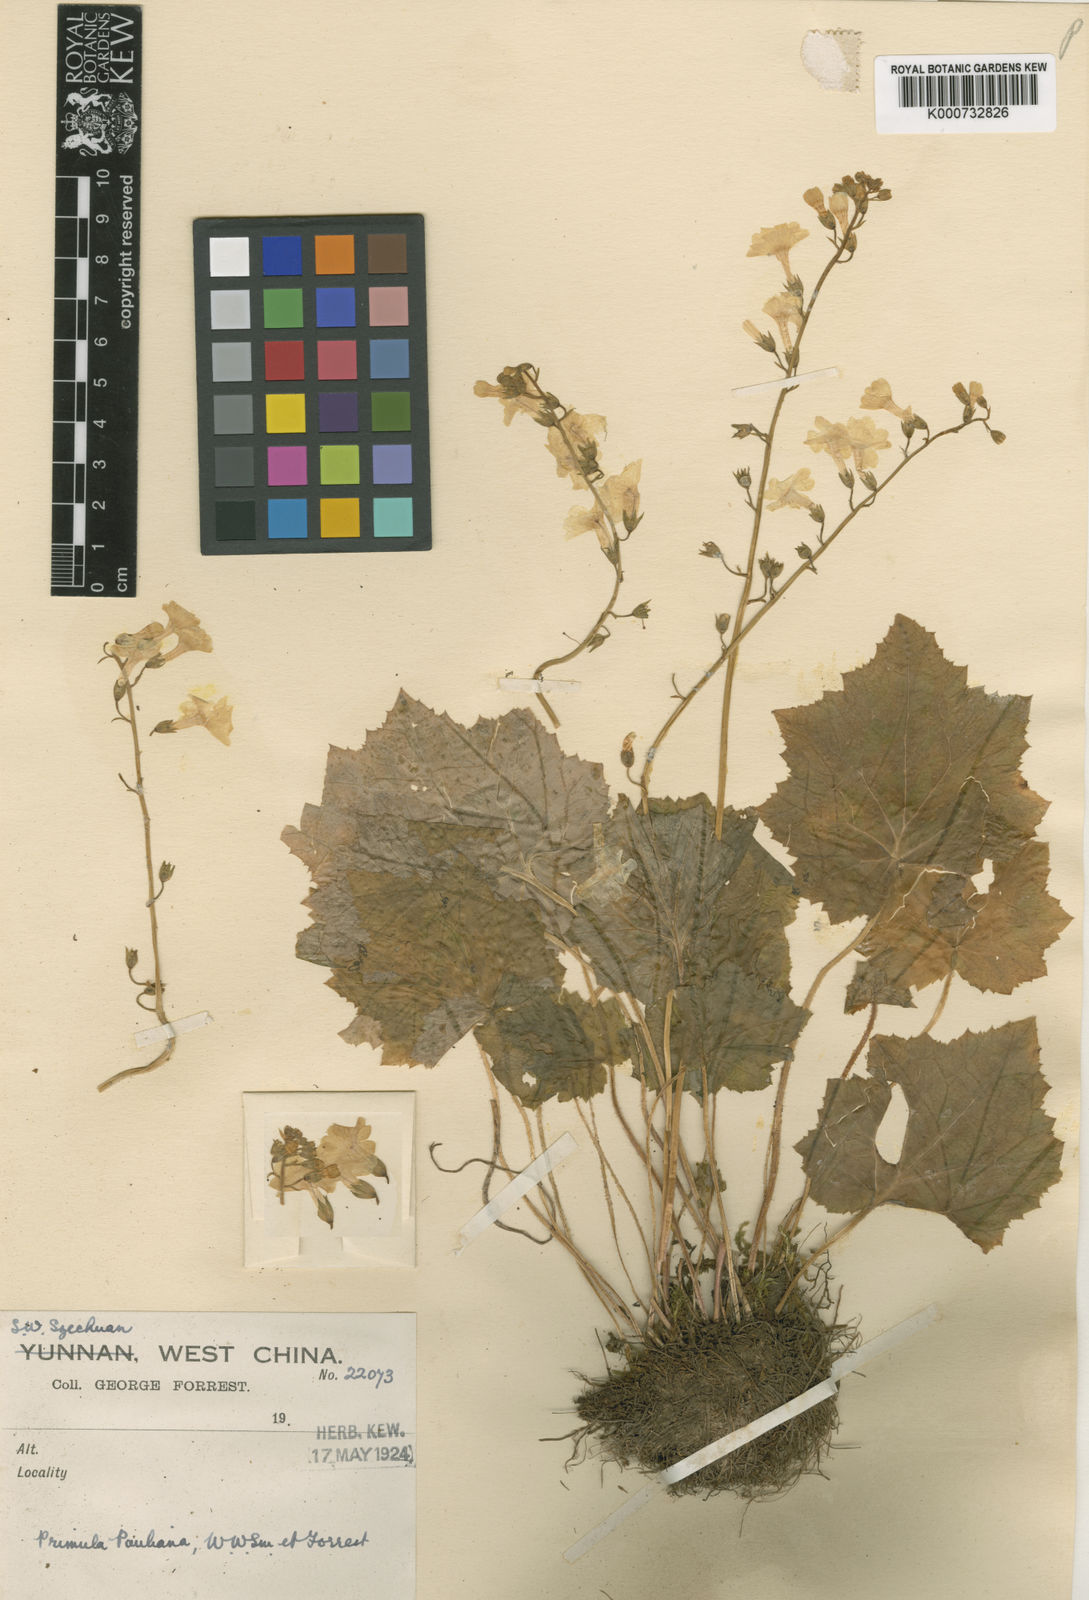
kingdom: Plantae
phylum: Tracheophyta
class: Magnoliopsida
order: Ericales
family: Primulaceae
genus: Primula
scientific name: Primula pauliana
